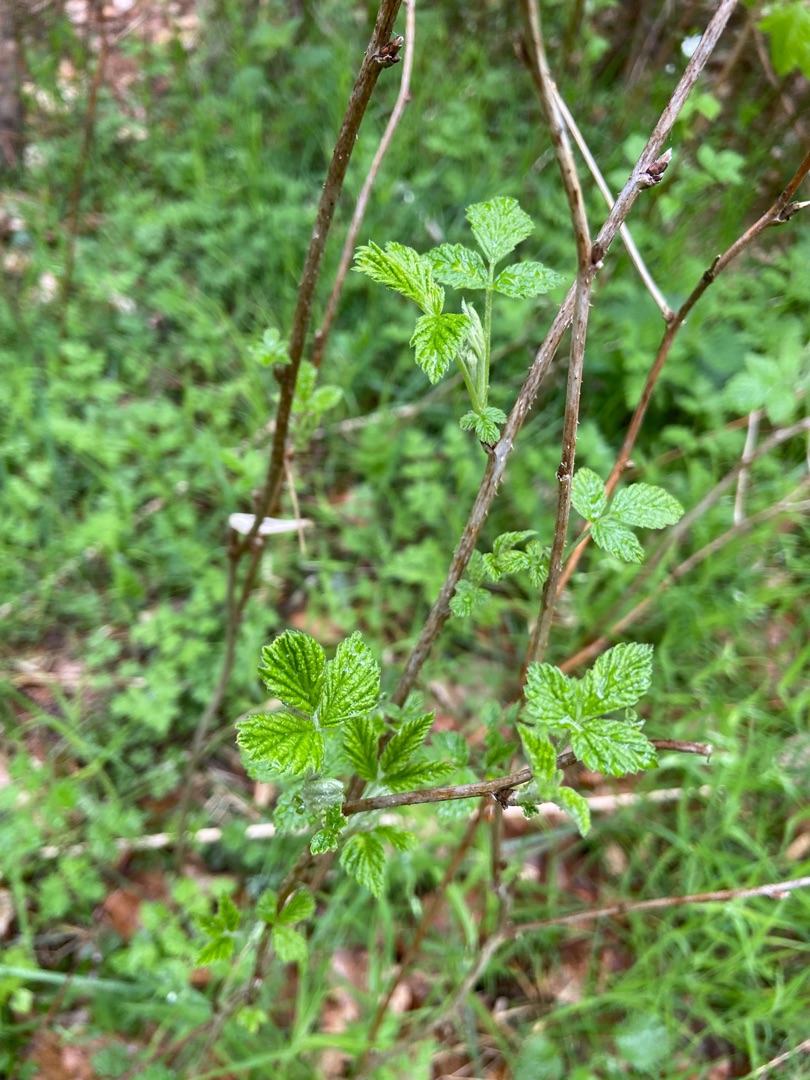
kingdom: Plantae
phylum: Tracheophyta
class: Magnoliopsida
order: Rosales
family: Rosaceae
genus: Rubus
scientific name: Rubus idaeus
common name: Hindbær
